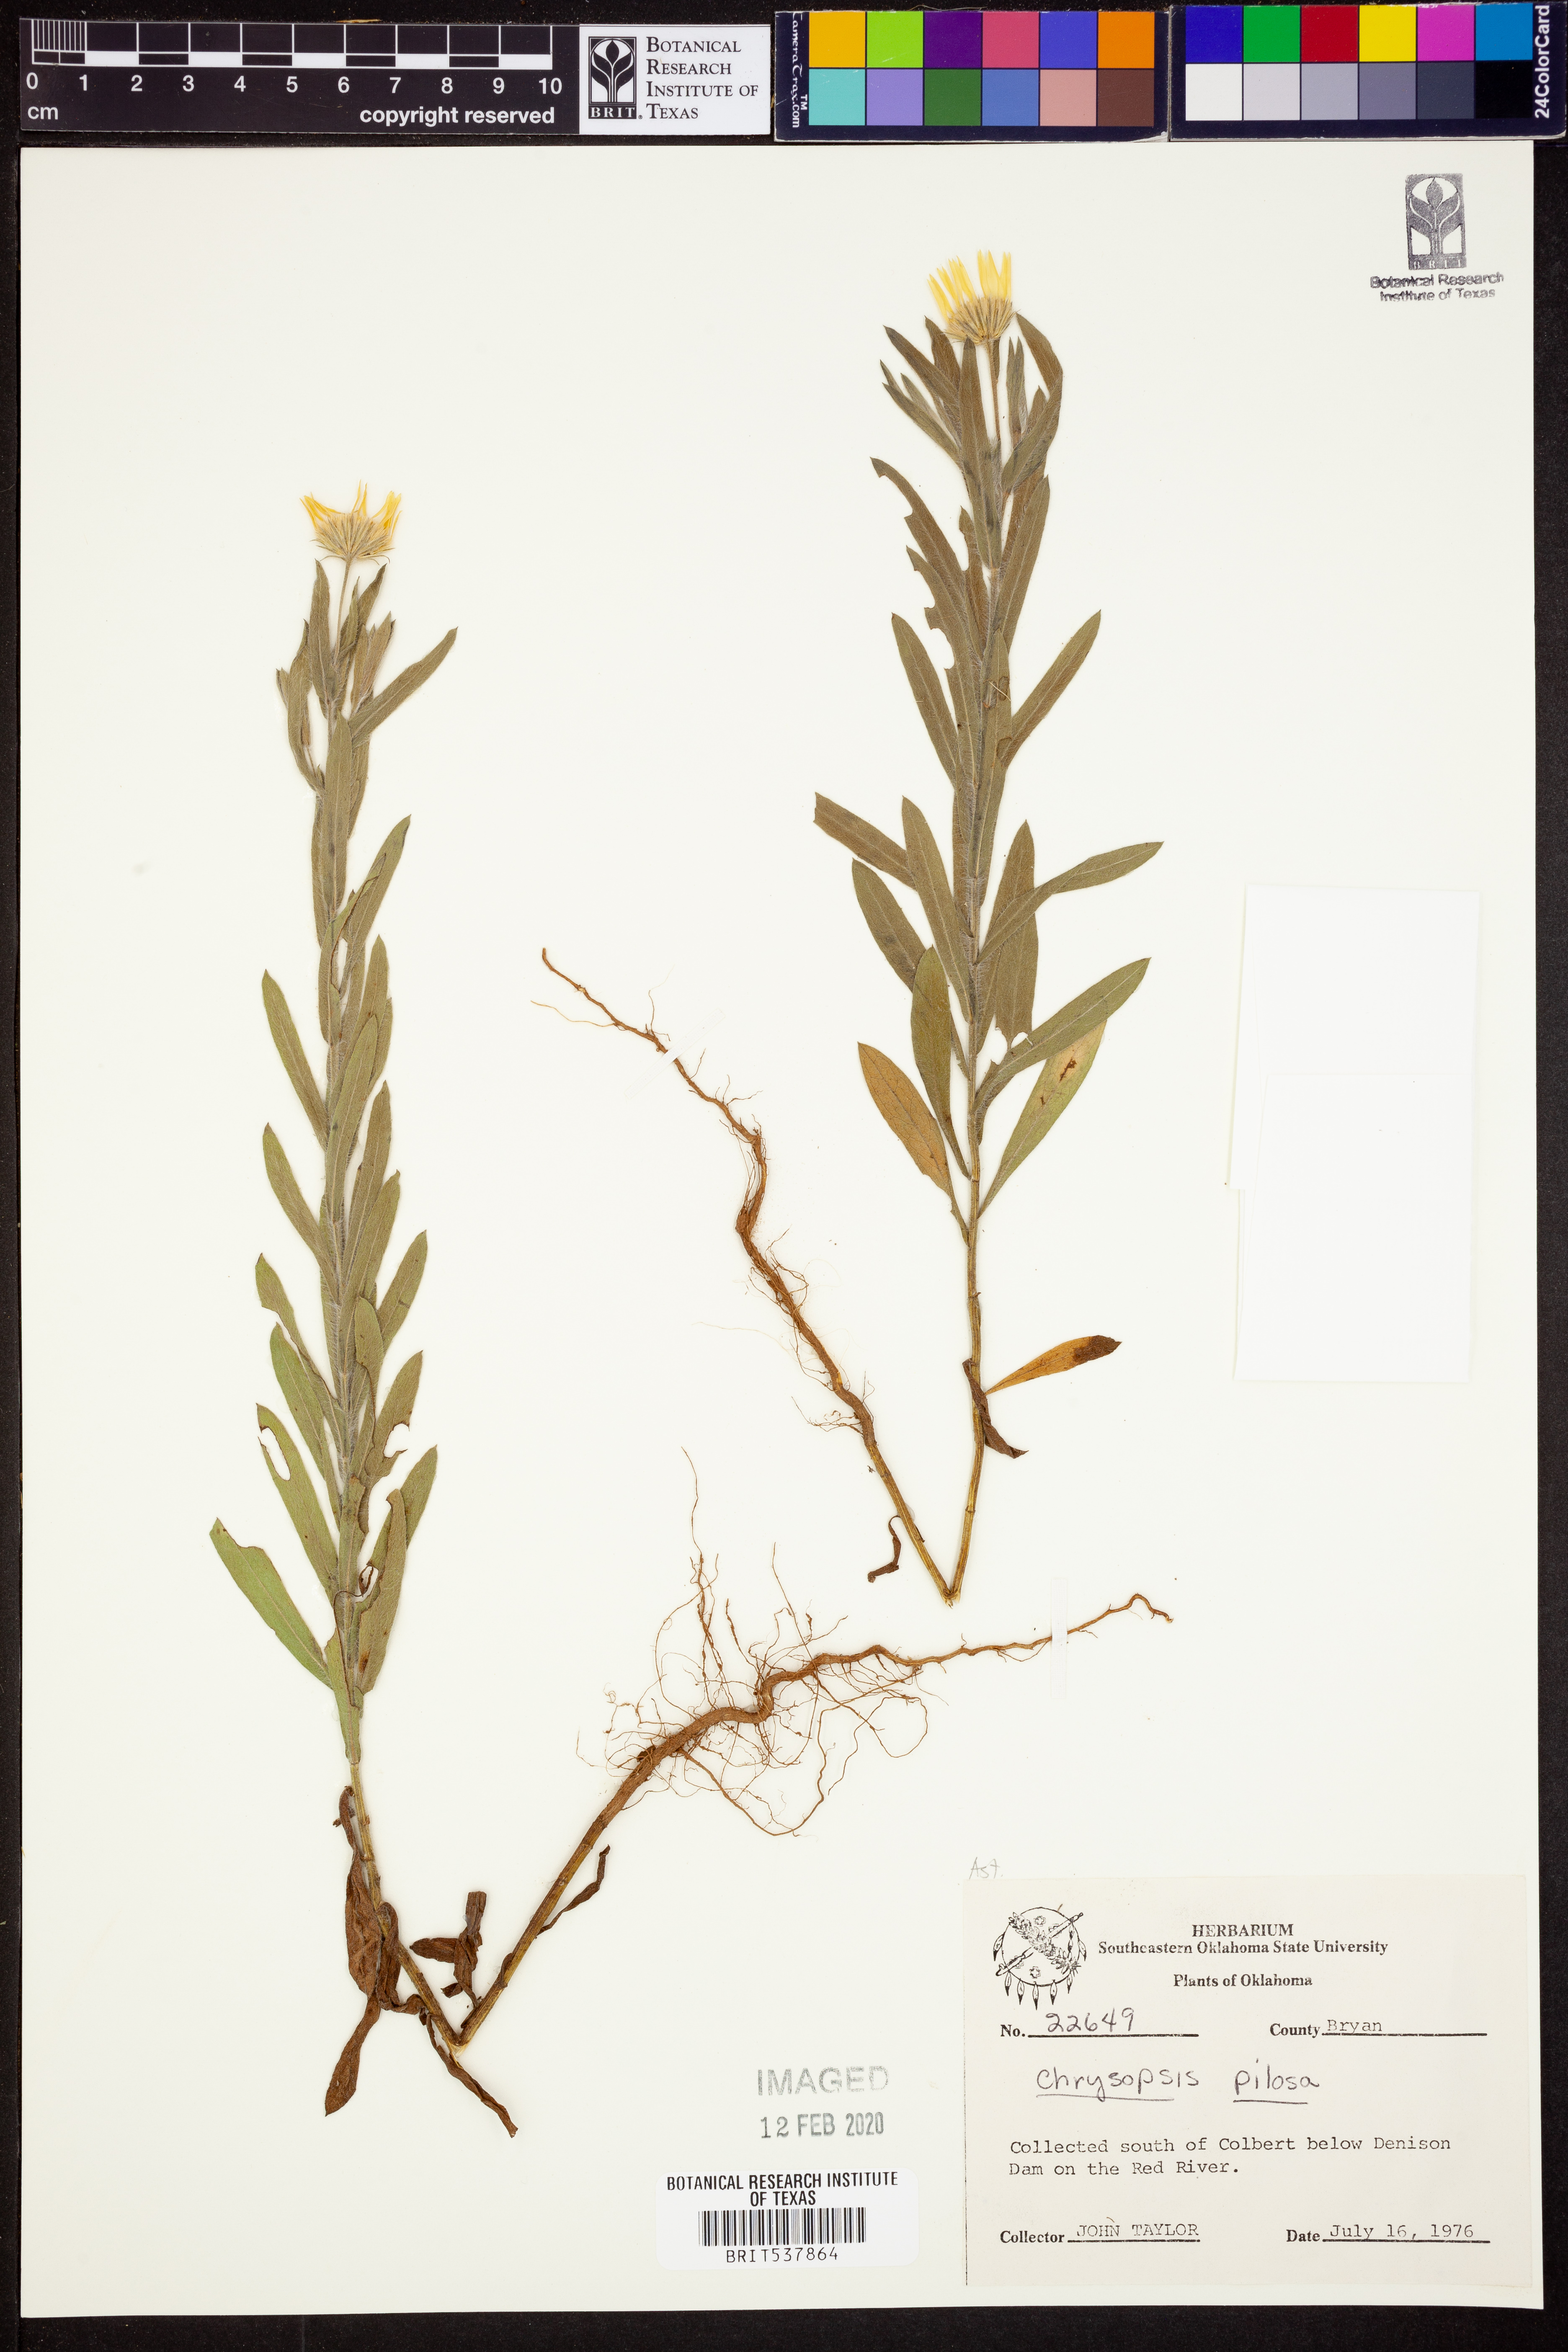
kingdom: Plantae
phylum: Tracheophyta
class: Magnoliopsida
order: Asterales
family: Asteraceae
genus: Bradburia
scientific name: Bradburia pilosa
